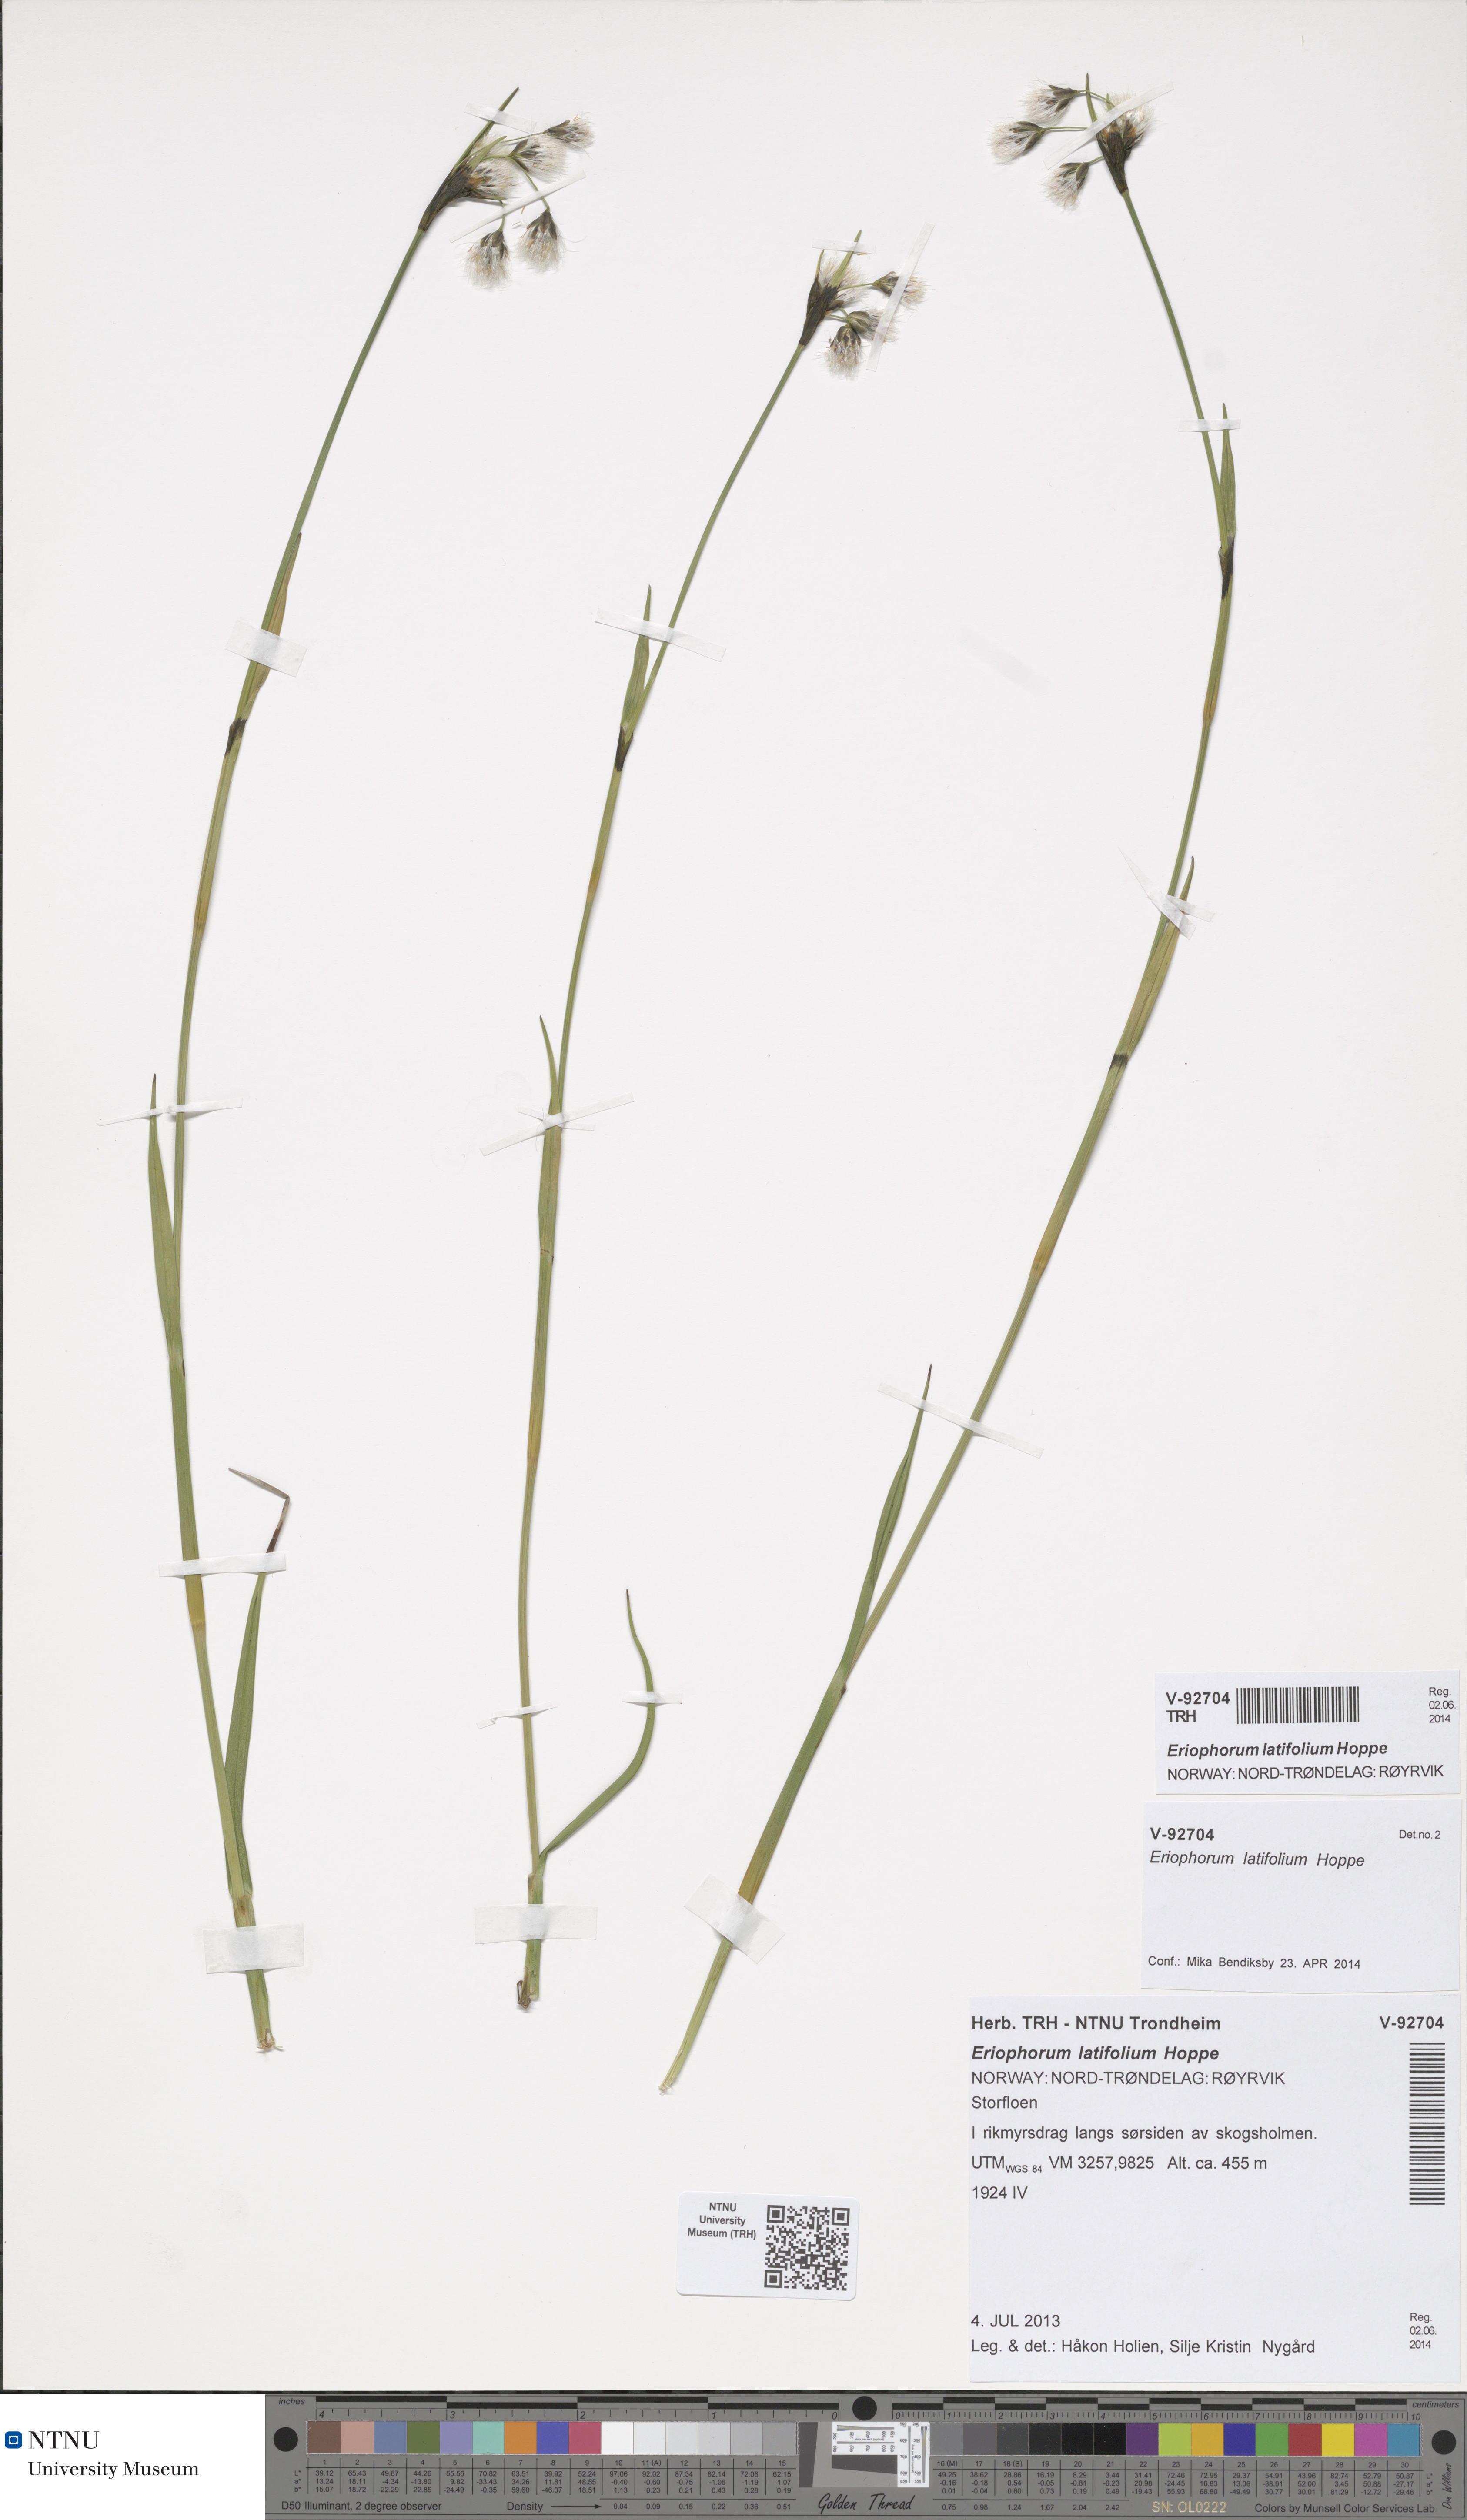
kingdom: Plantae
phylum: Tracheophyta
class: Liliopsida
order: Poales
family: Cyperaceae
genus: Eriophorum
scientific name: Eriophorum latifolium
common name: Broad-leaved cottongrass
